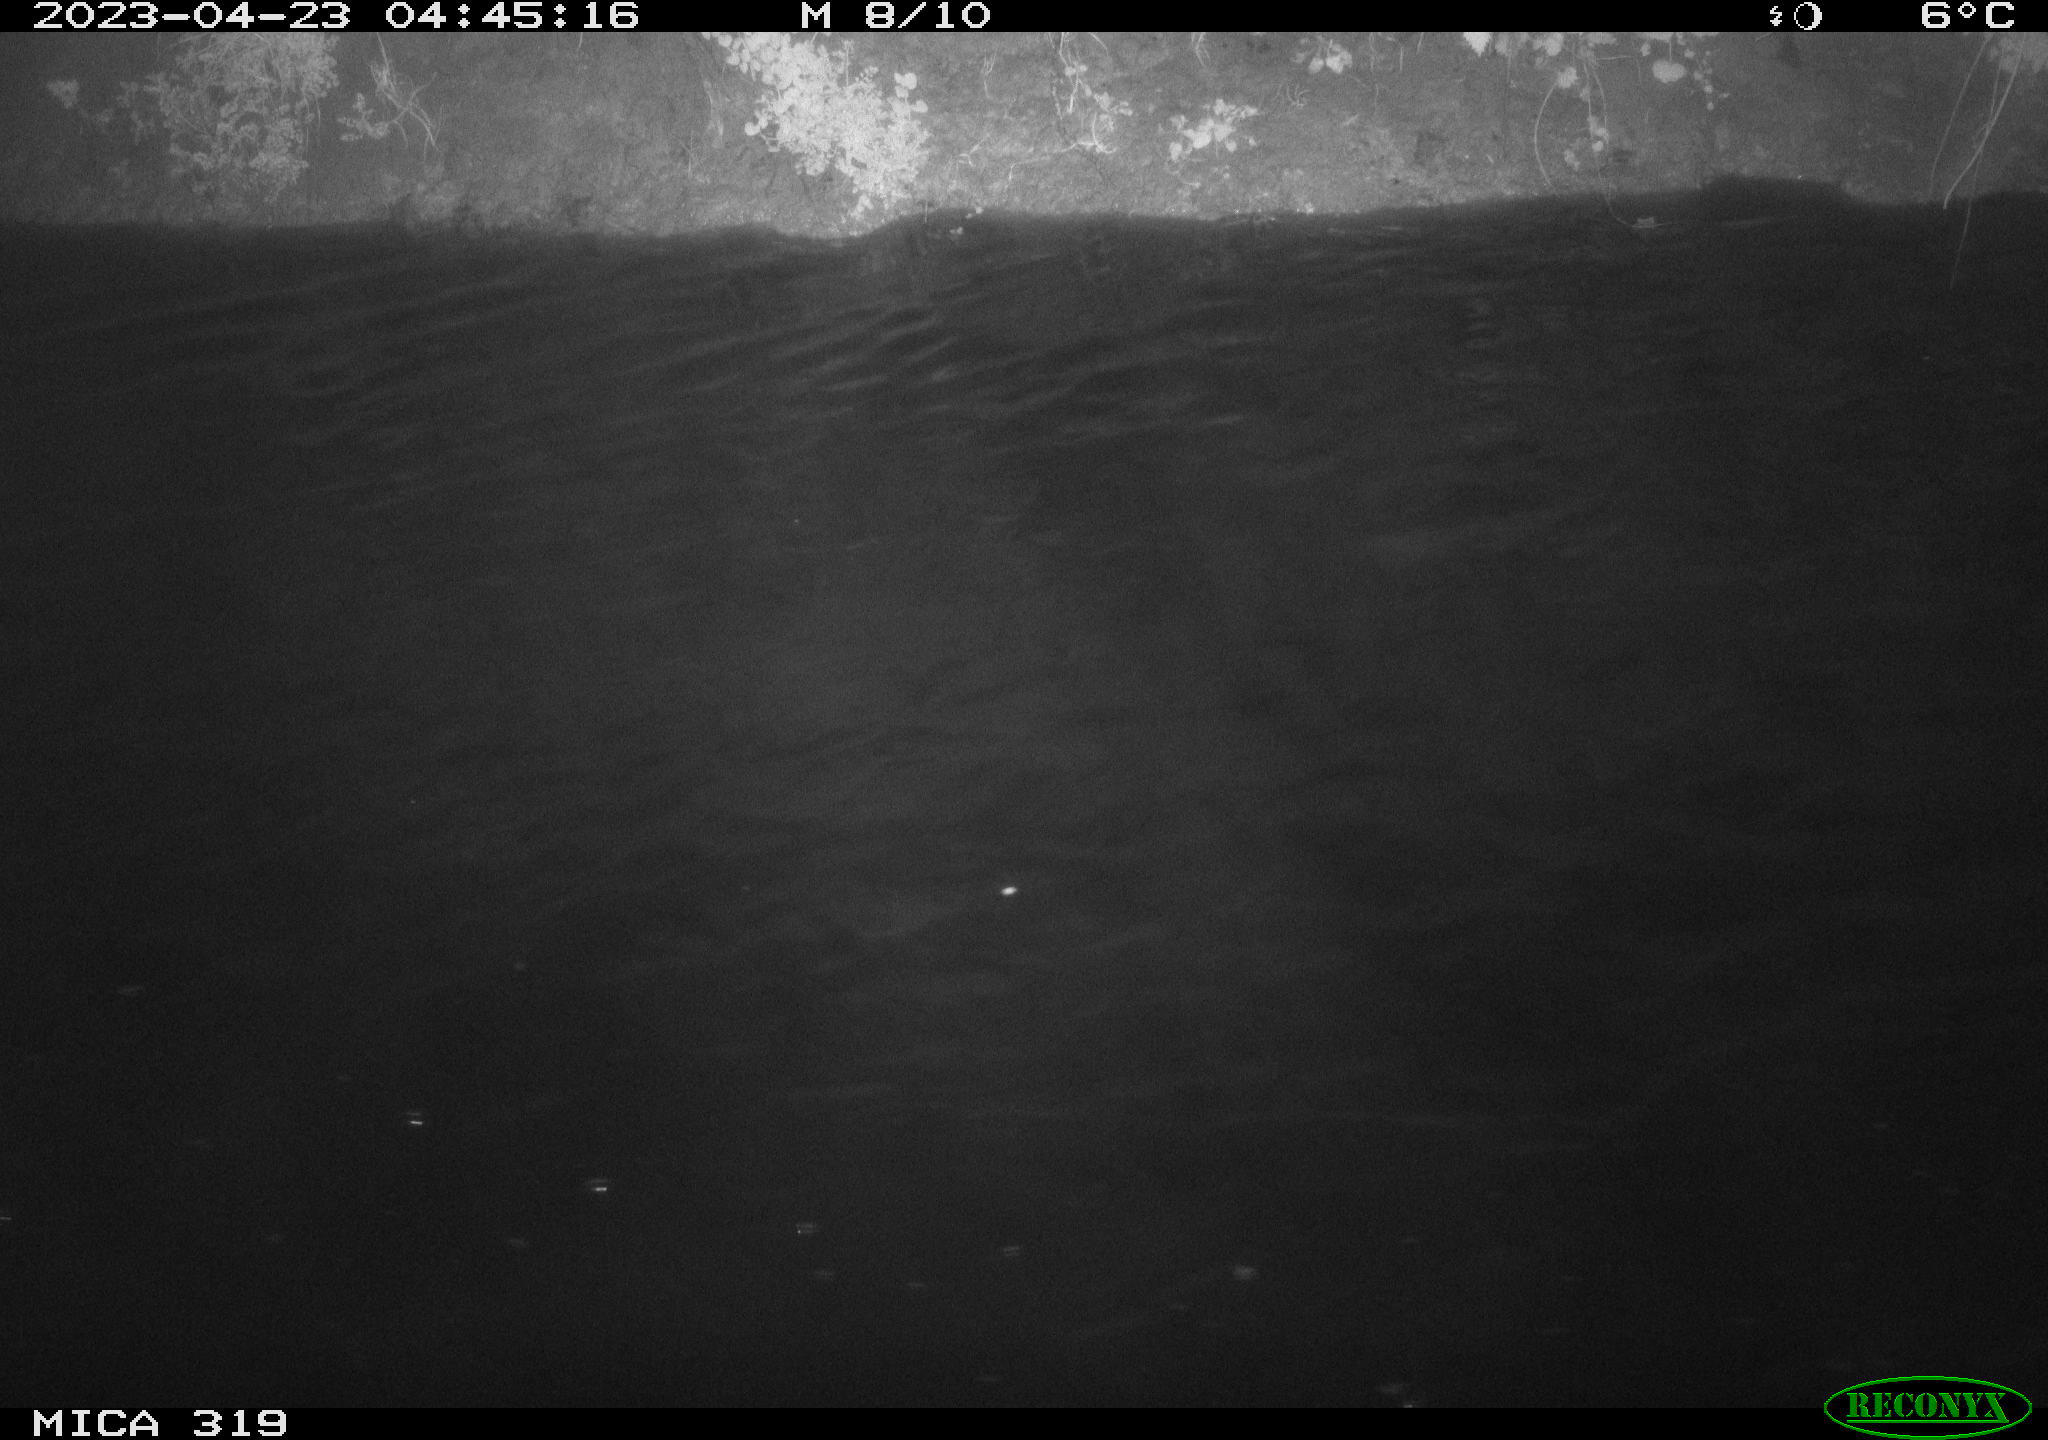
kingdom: Animalia
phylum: Chordata
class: Aves
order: Anseriformes
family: Anatidae
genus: Anas
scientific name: Anas
